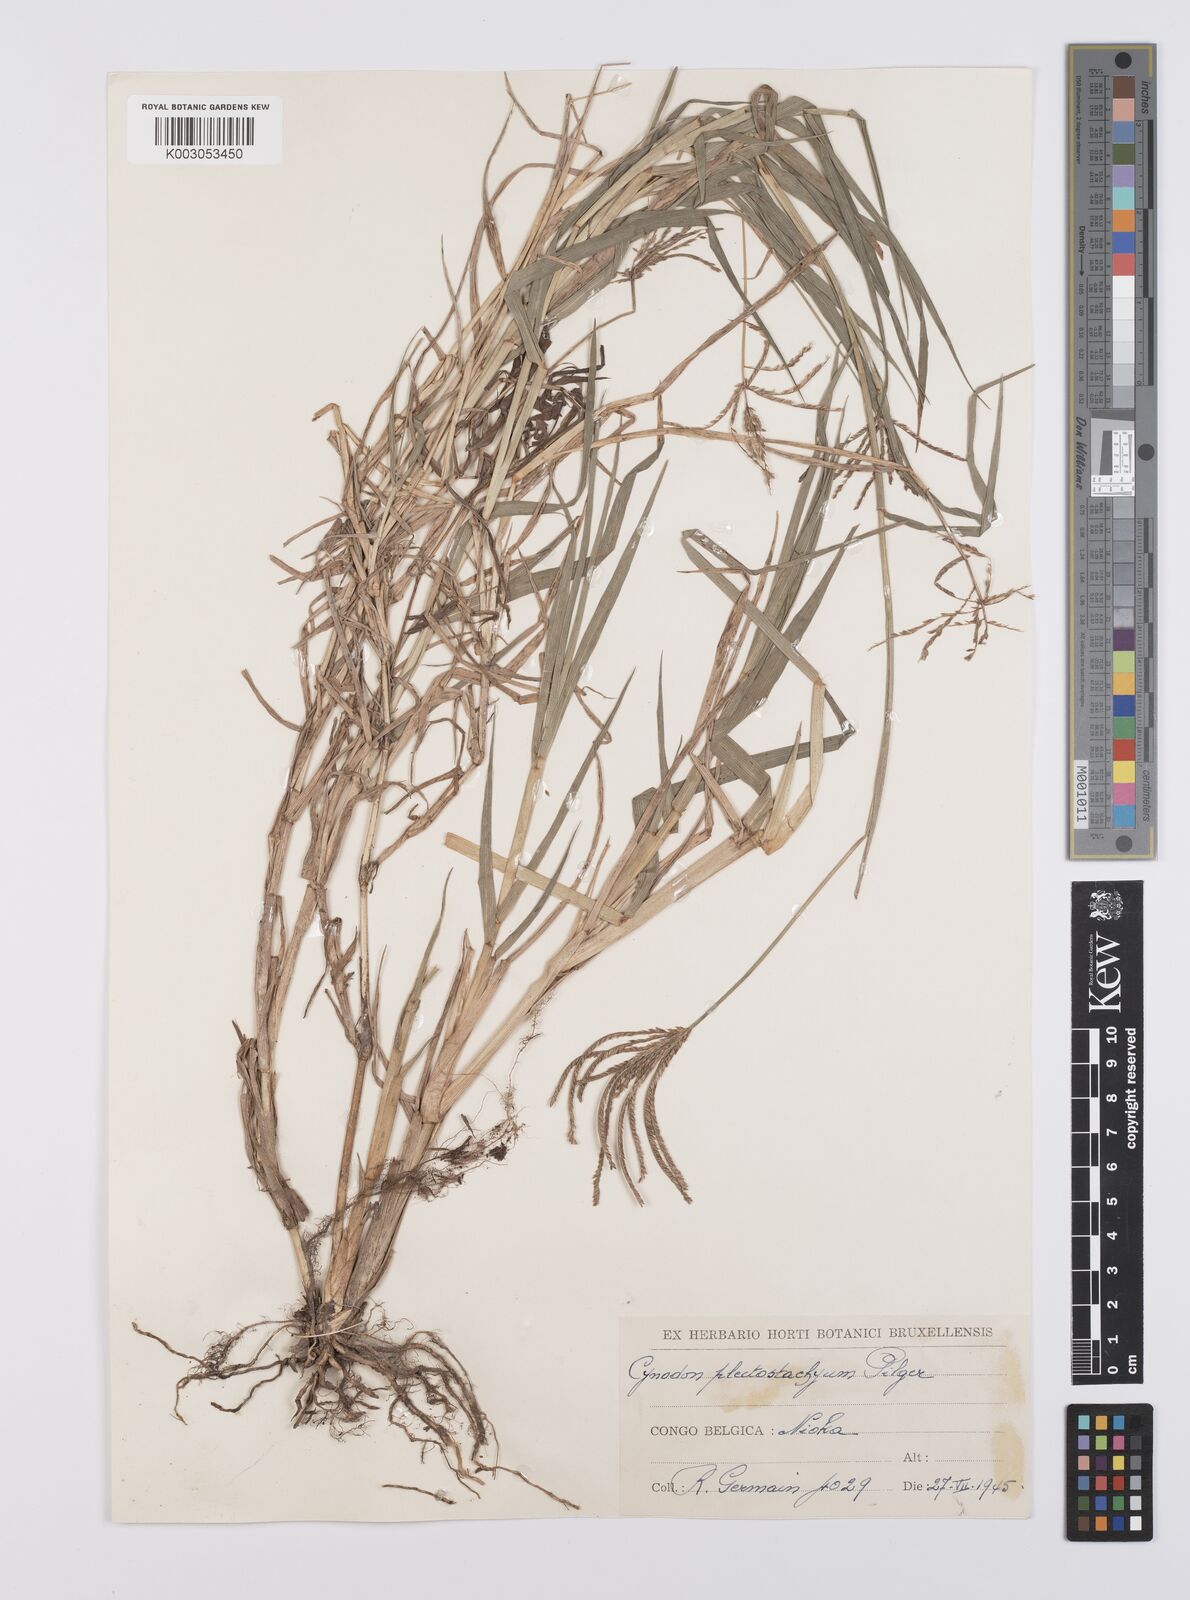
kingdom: Plantae
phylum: Tracheophyta
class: Liliopsida
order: Poales
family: Poaceae
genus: Cynodon
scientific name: Cynodon aethiopicus
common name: Ethiopian dogstooth grass
